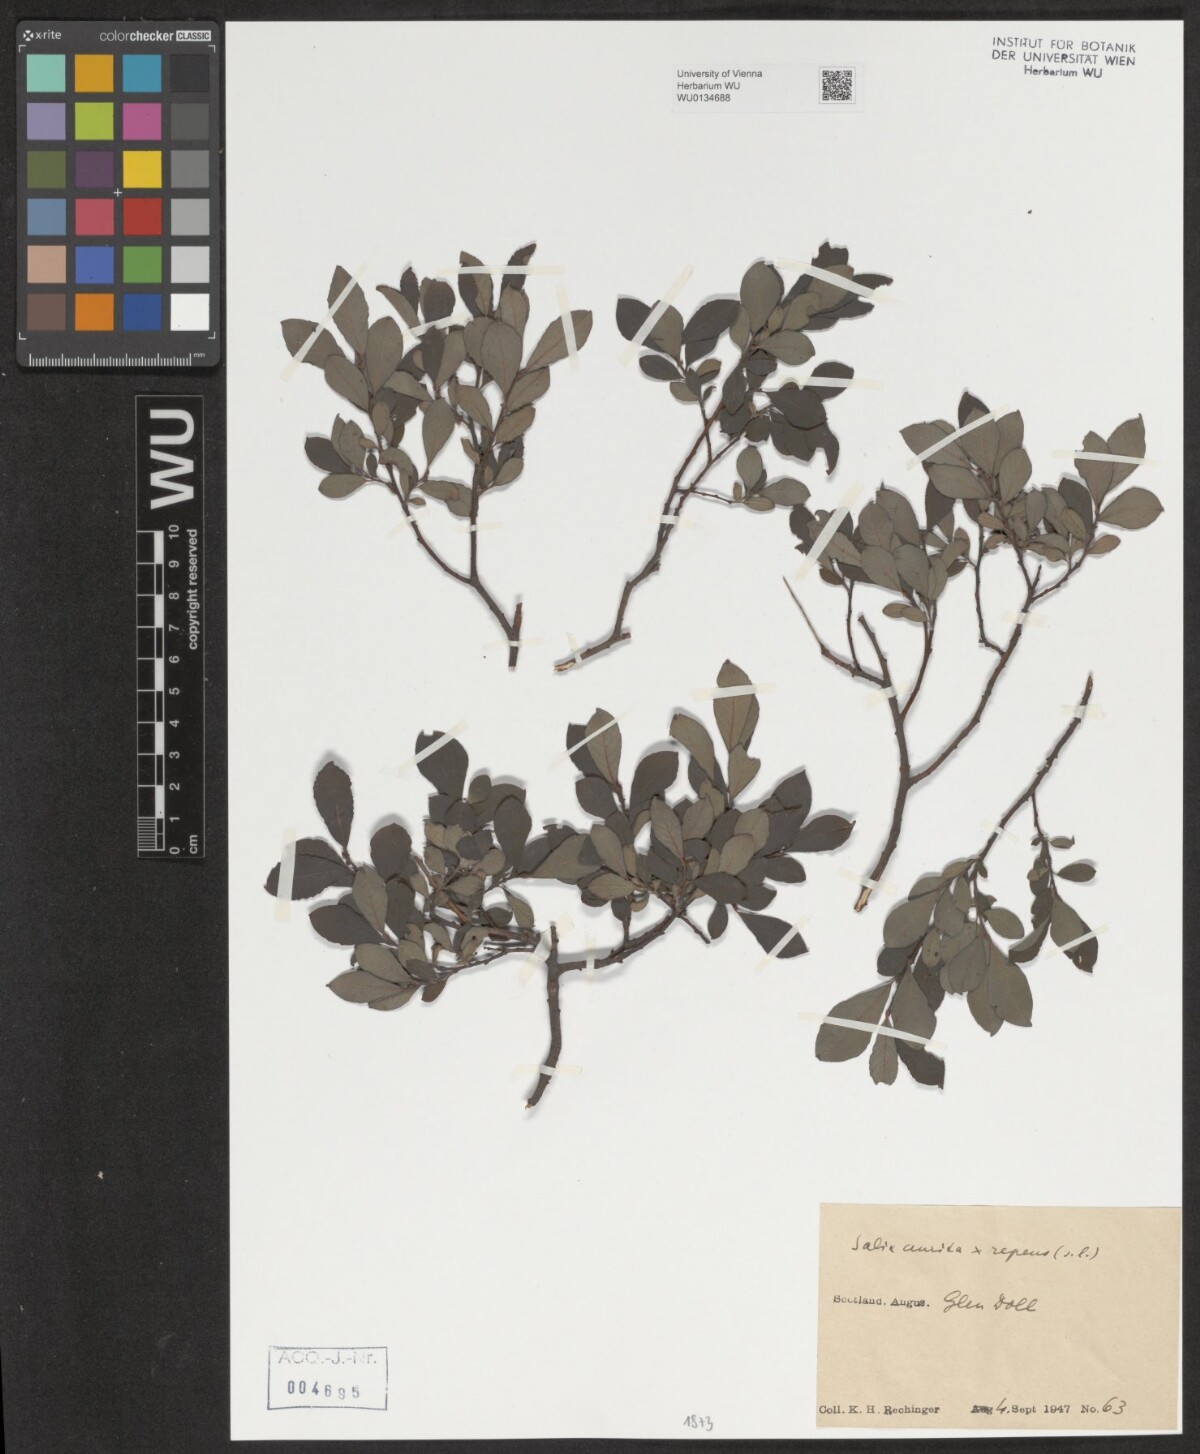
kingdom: Plantae
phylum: Tracheophyta
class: Magnoliopsida
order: Malpighiales
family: Salicaceae
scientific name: Salicaceae
